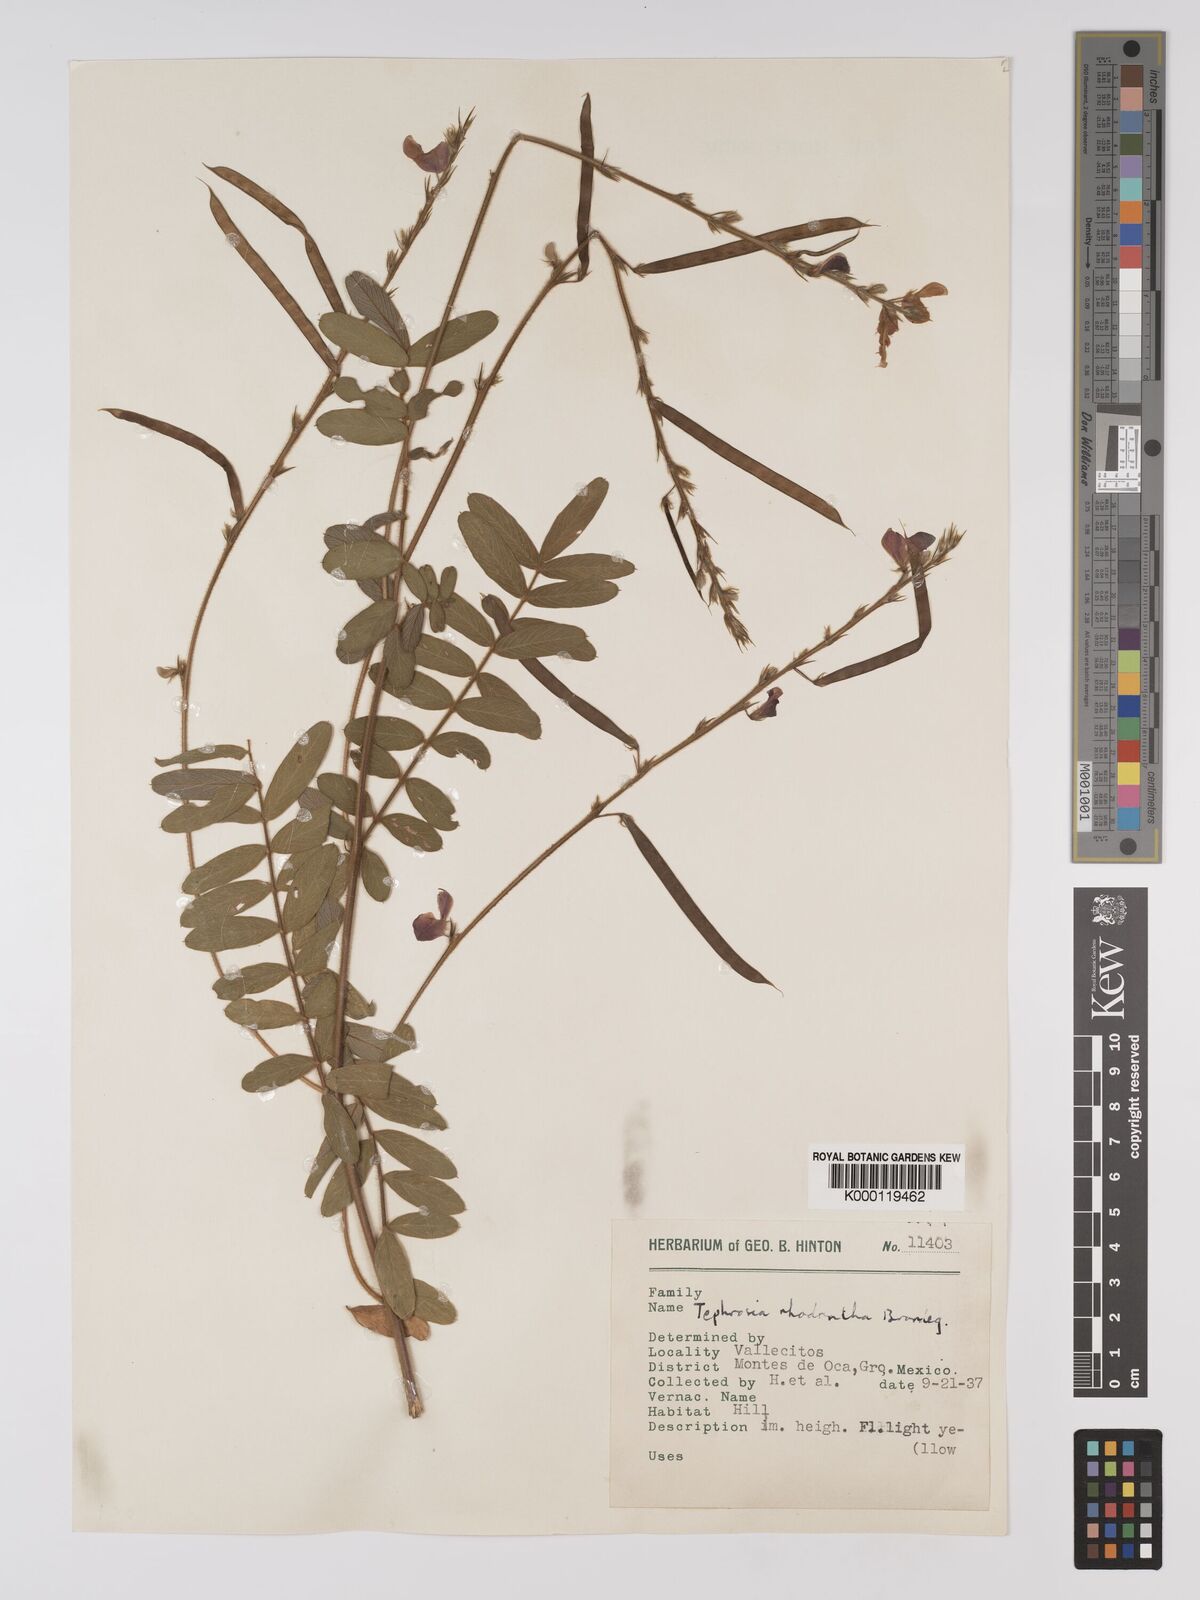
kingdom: Plantae
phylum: Tracheophyta
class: Magnoliopsida
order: Fabales
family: Fabaceae
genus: Tephrosia
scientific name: Tephrosia rhodantha
